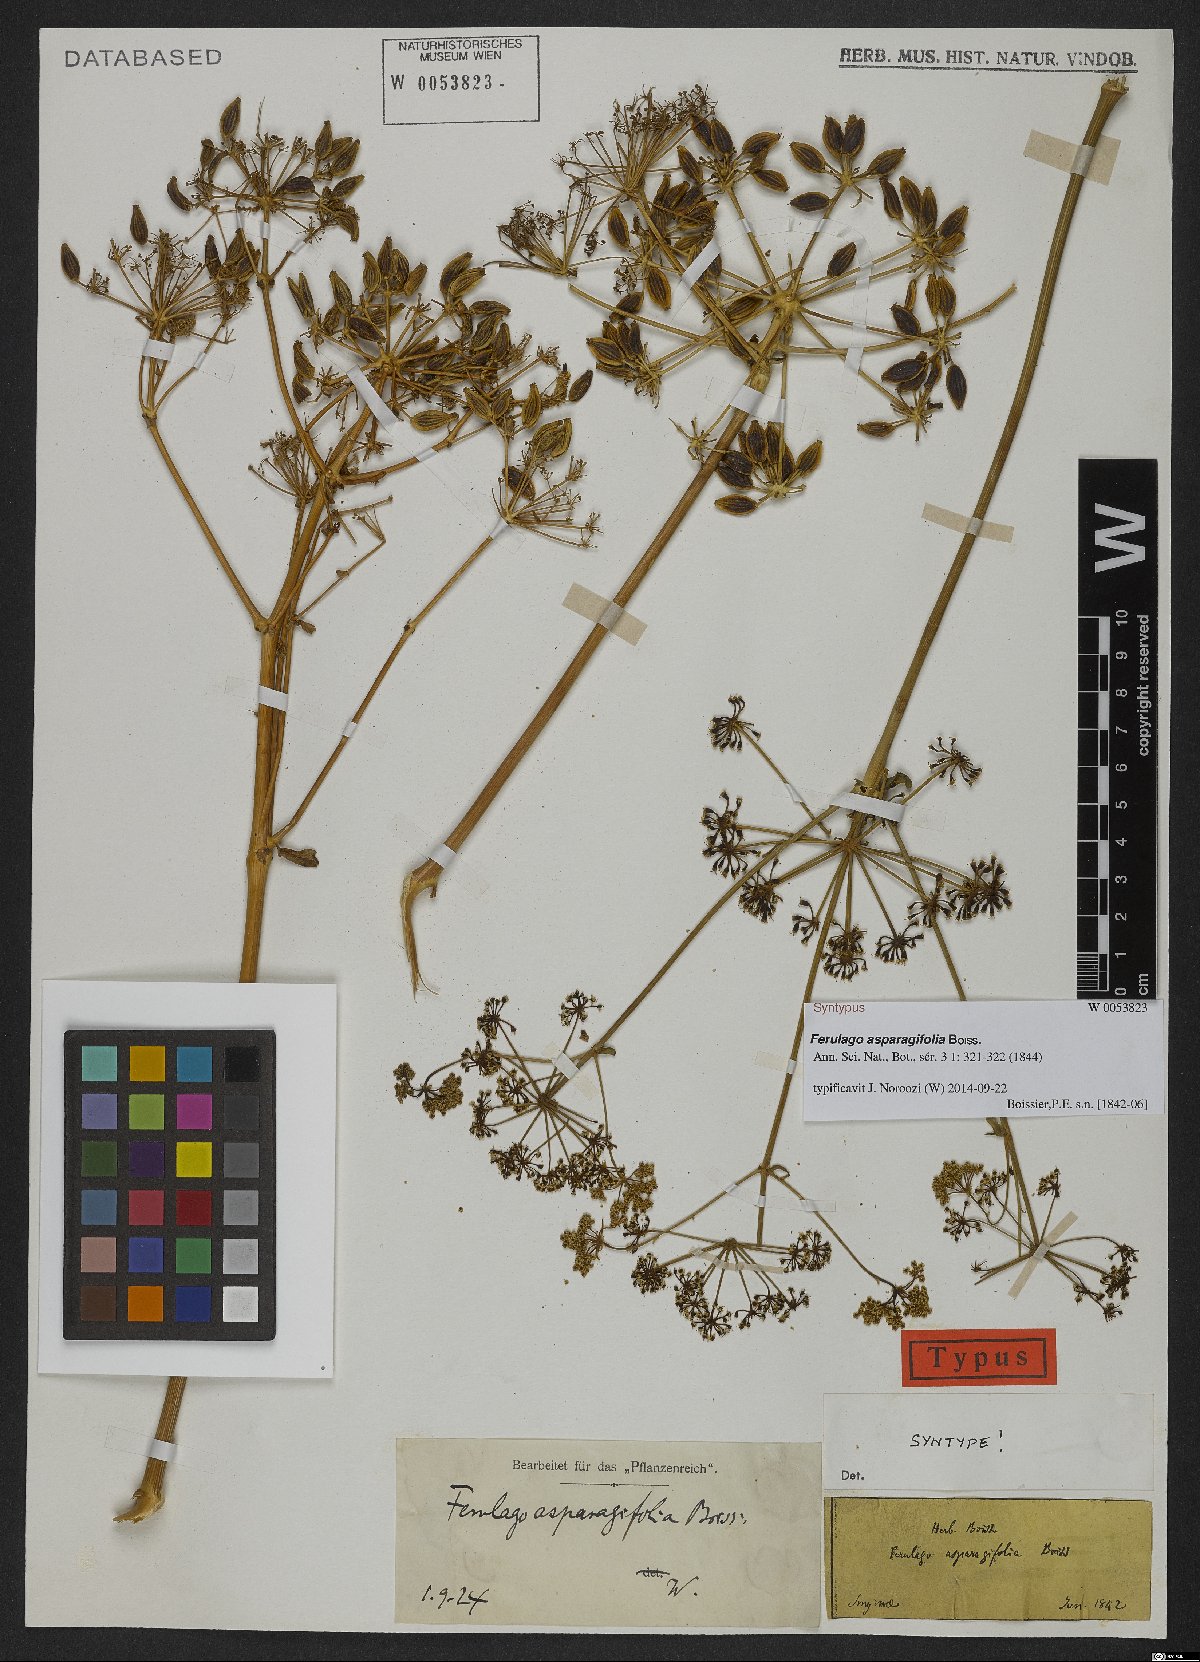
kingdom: Plantae
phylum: Tracheophyta
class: Magnoliopsida
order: Apiales
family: Apiaceae
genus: Ferulago
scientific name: Ferulago asparagifolia
